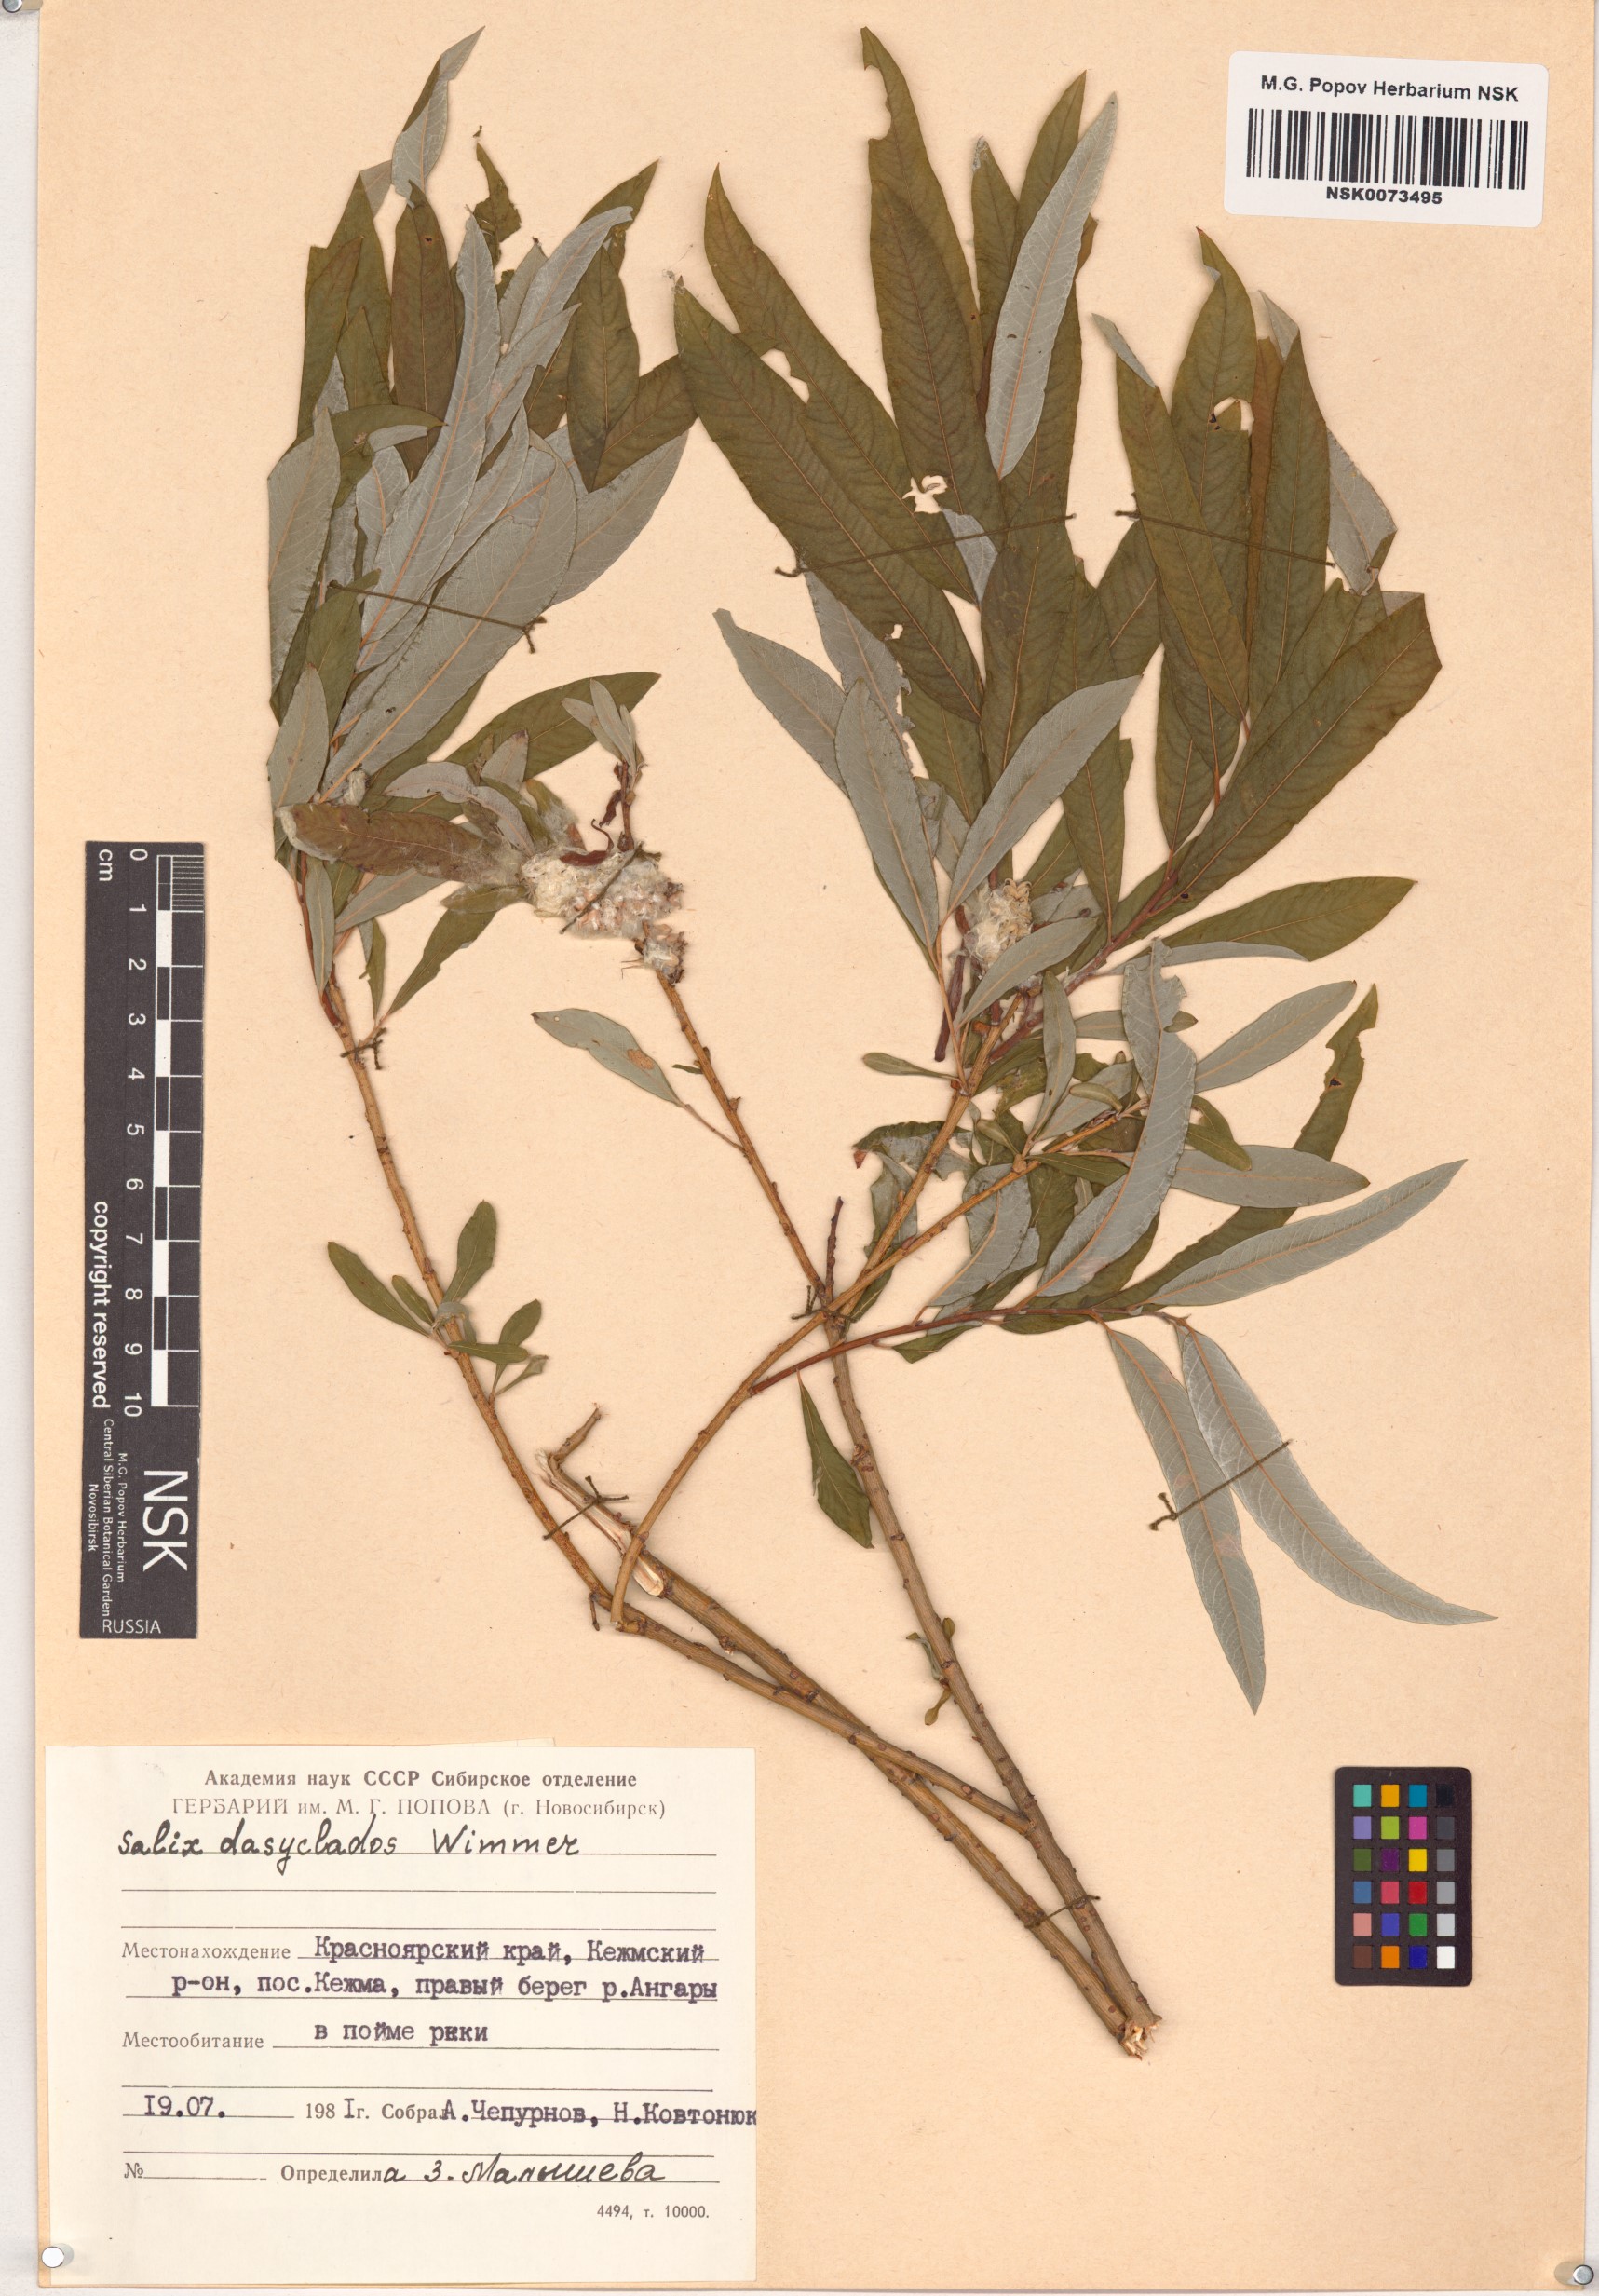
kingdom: Plantae
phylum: Tracheophyta
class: Magnoliopsida
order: Malpighiales
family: Salicaceae
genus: Salix
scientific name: Salix gmelinii
